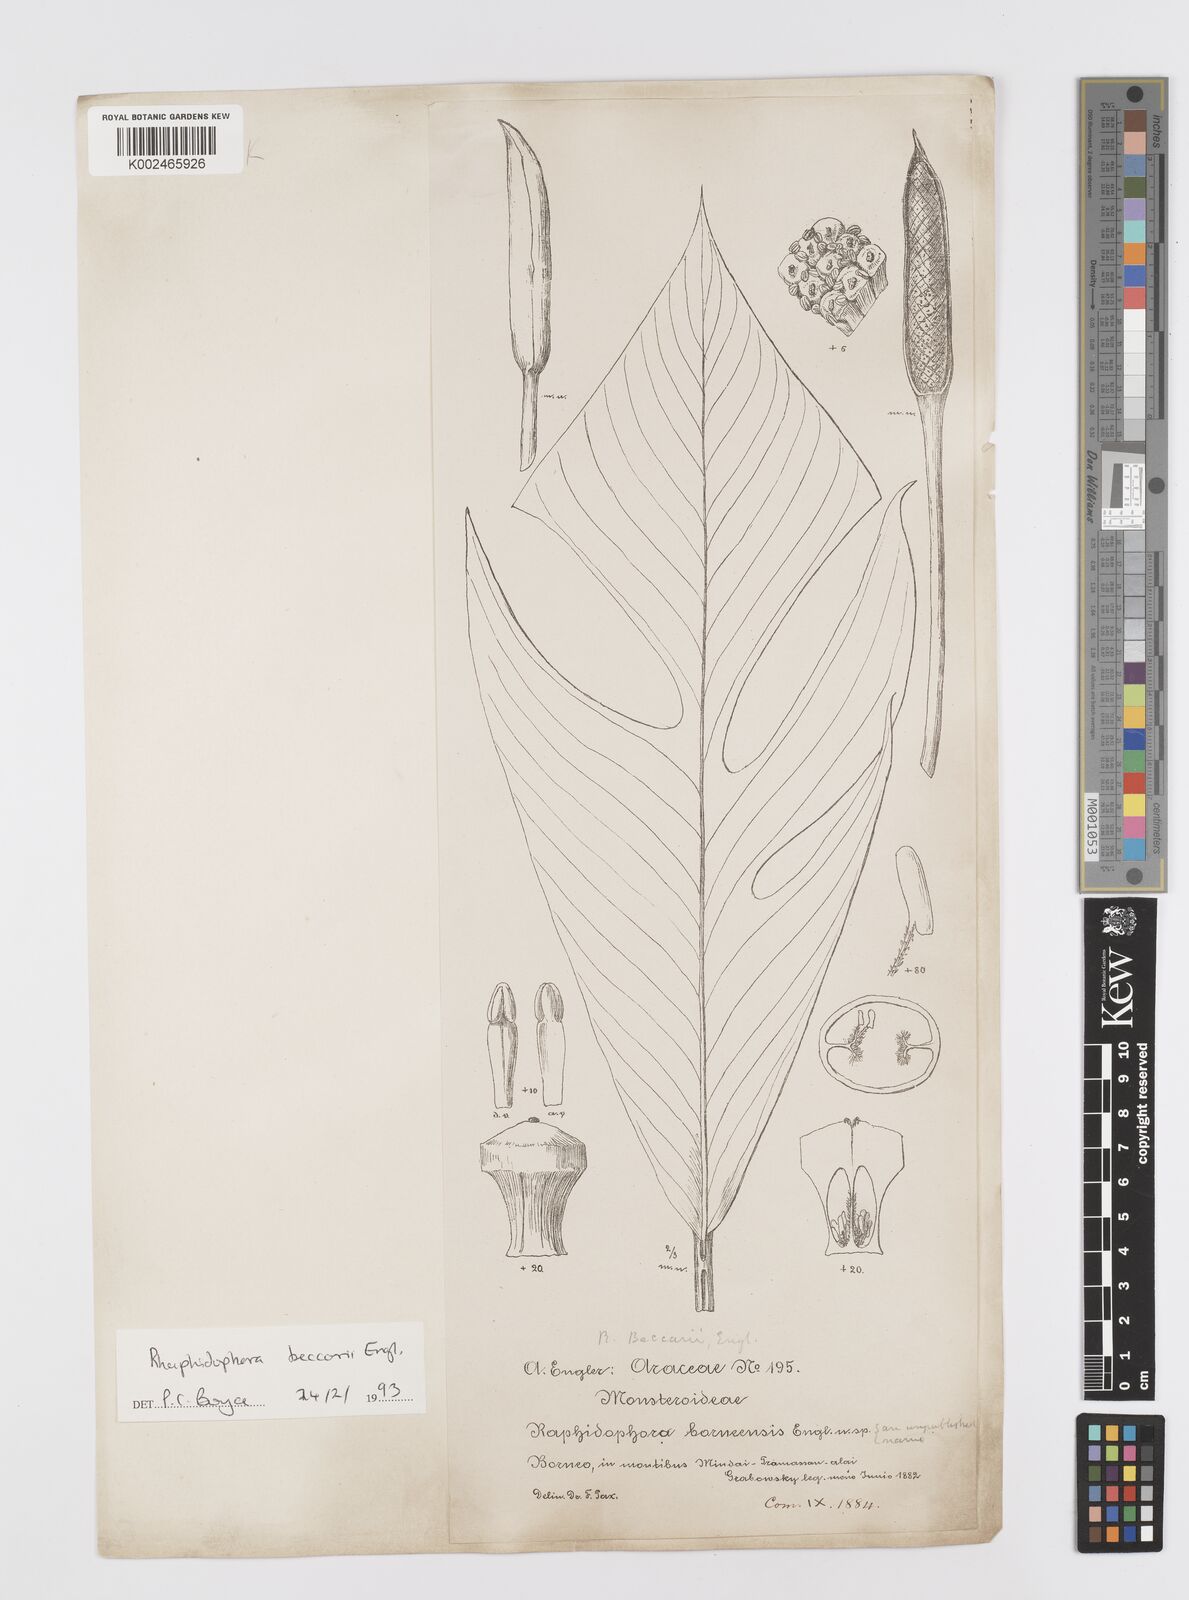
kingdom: Plantae
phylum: Tracheophyta
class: Liliopsida
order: Alismatales
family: Araceae
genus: Rhaphidophora
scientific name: Rhaphidophora beccarii
